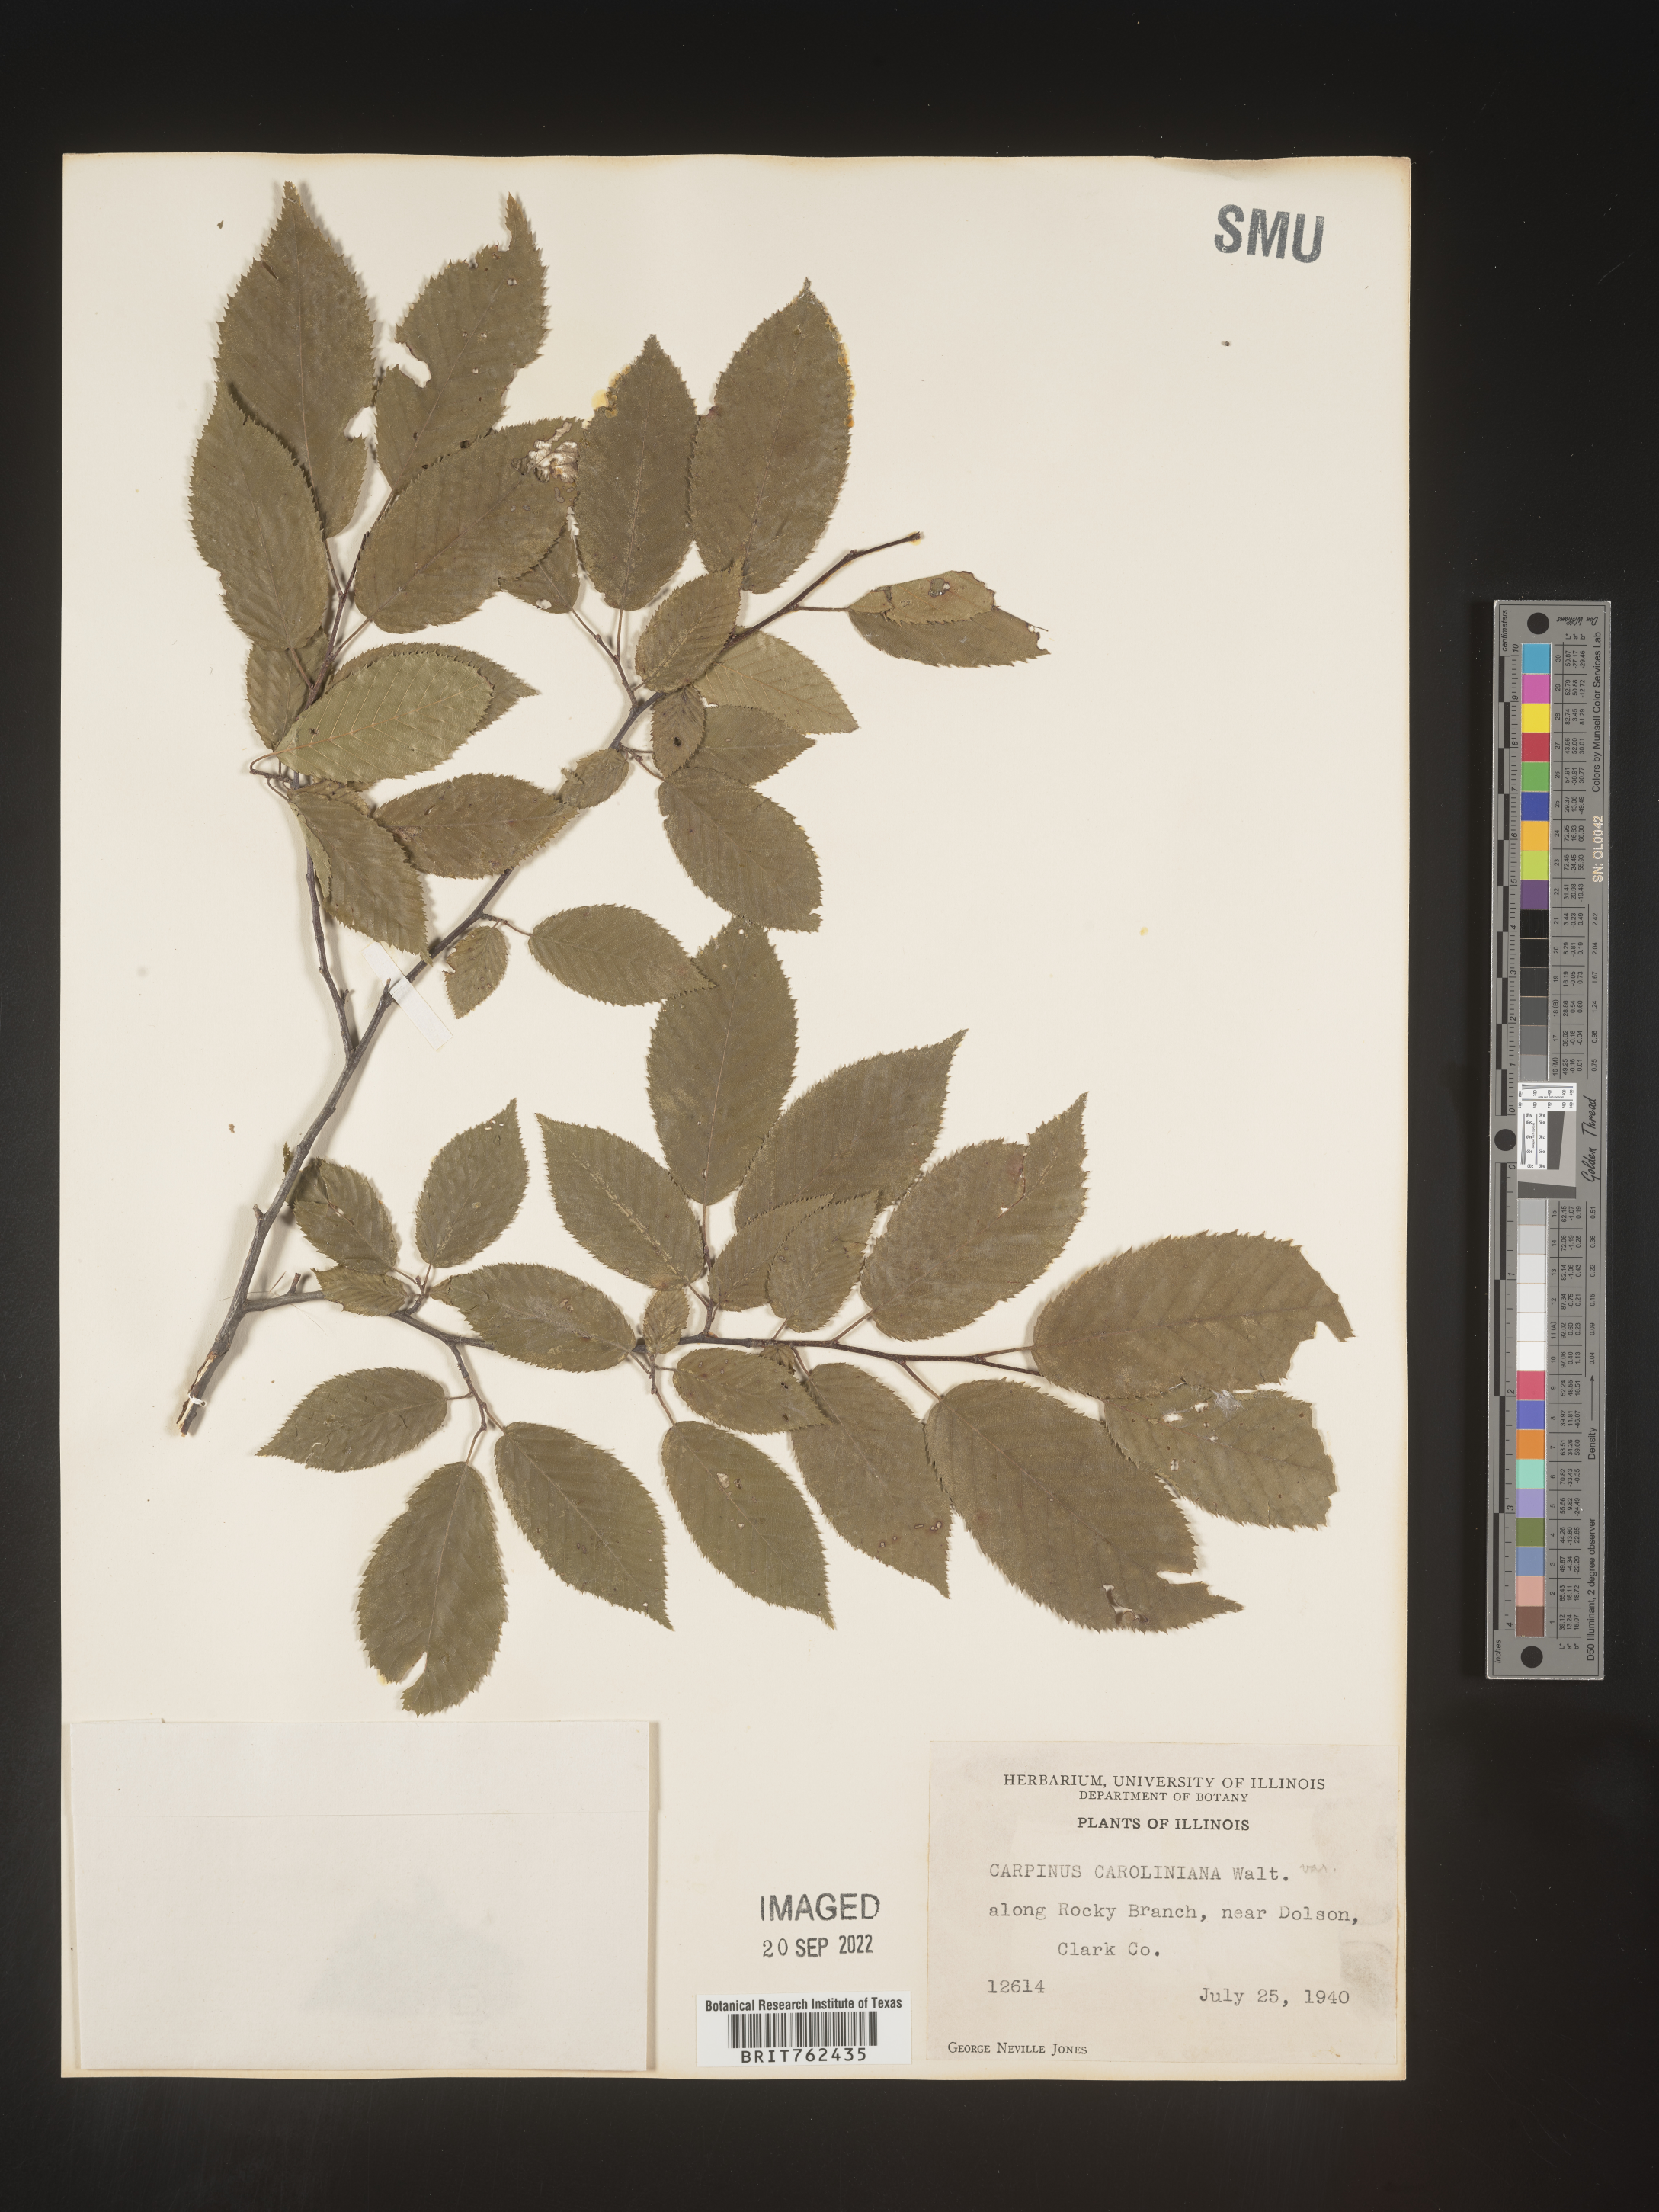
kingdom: Plantae
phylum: Tracheophyta
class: Magnoliopsida
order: Fagales
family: Betulaceae
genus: Carpinus
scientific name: Carpinus caroliniana
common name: American hornbeam
